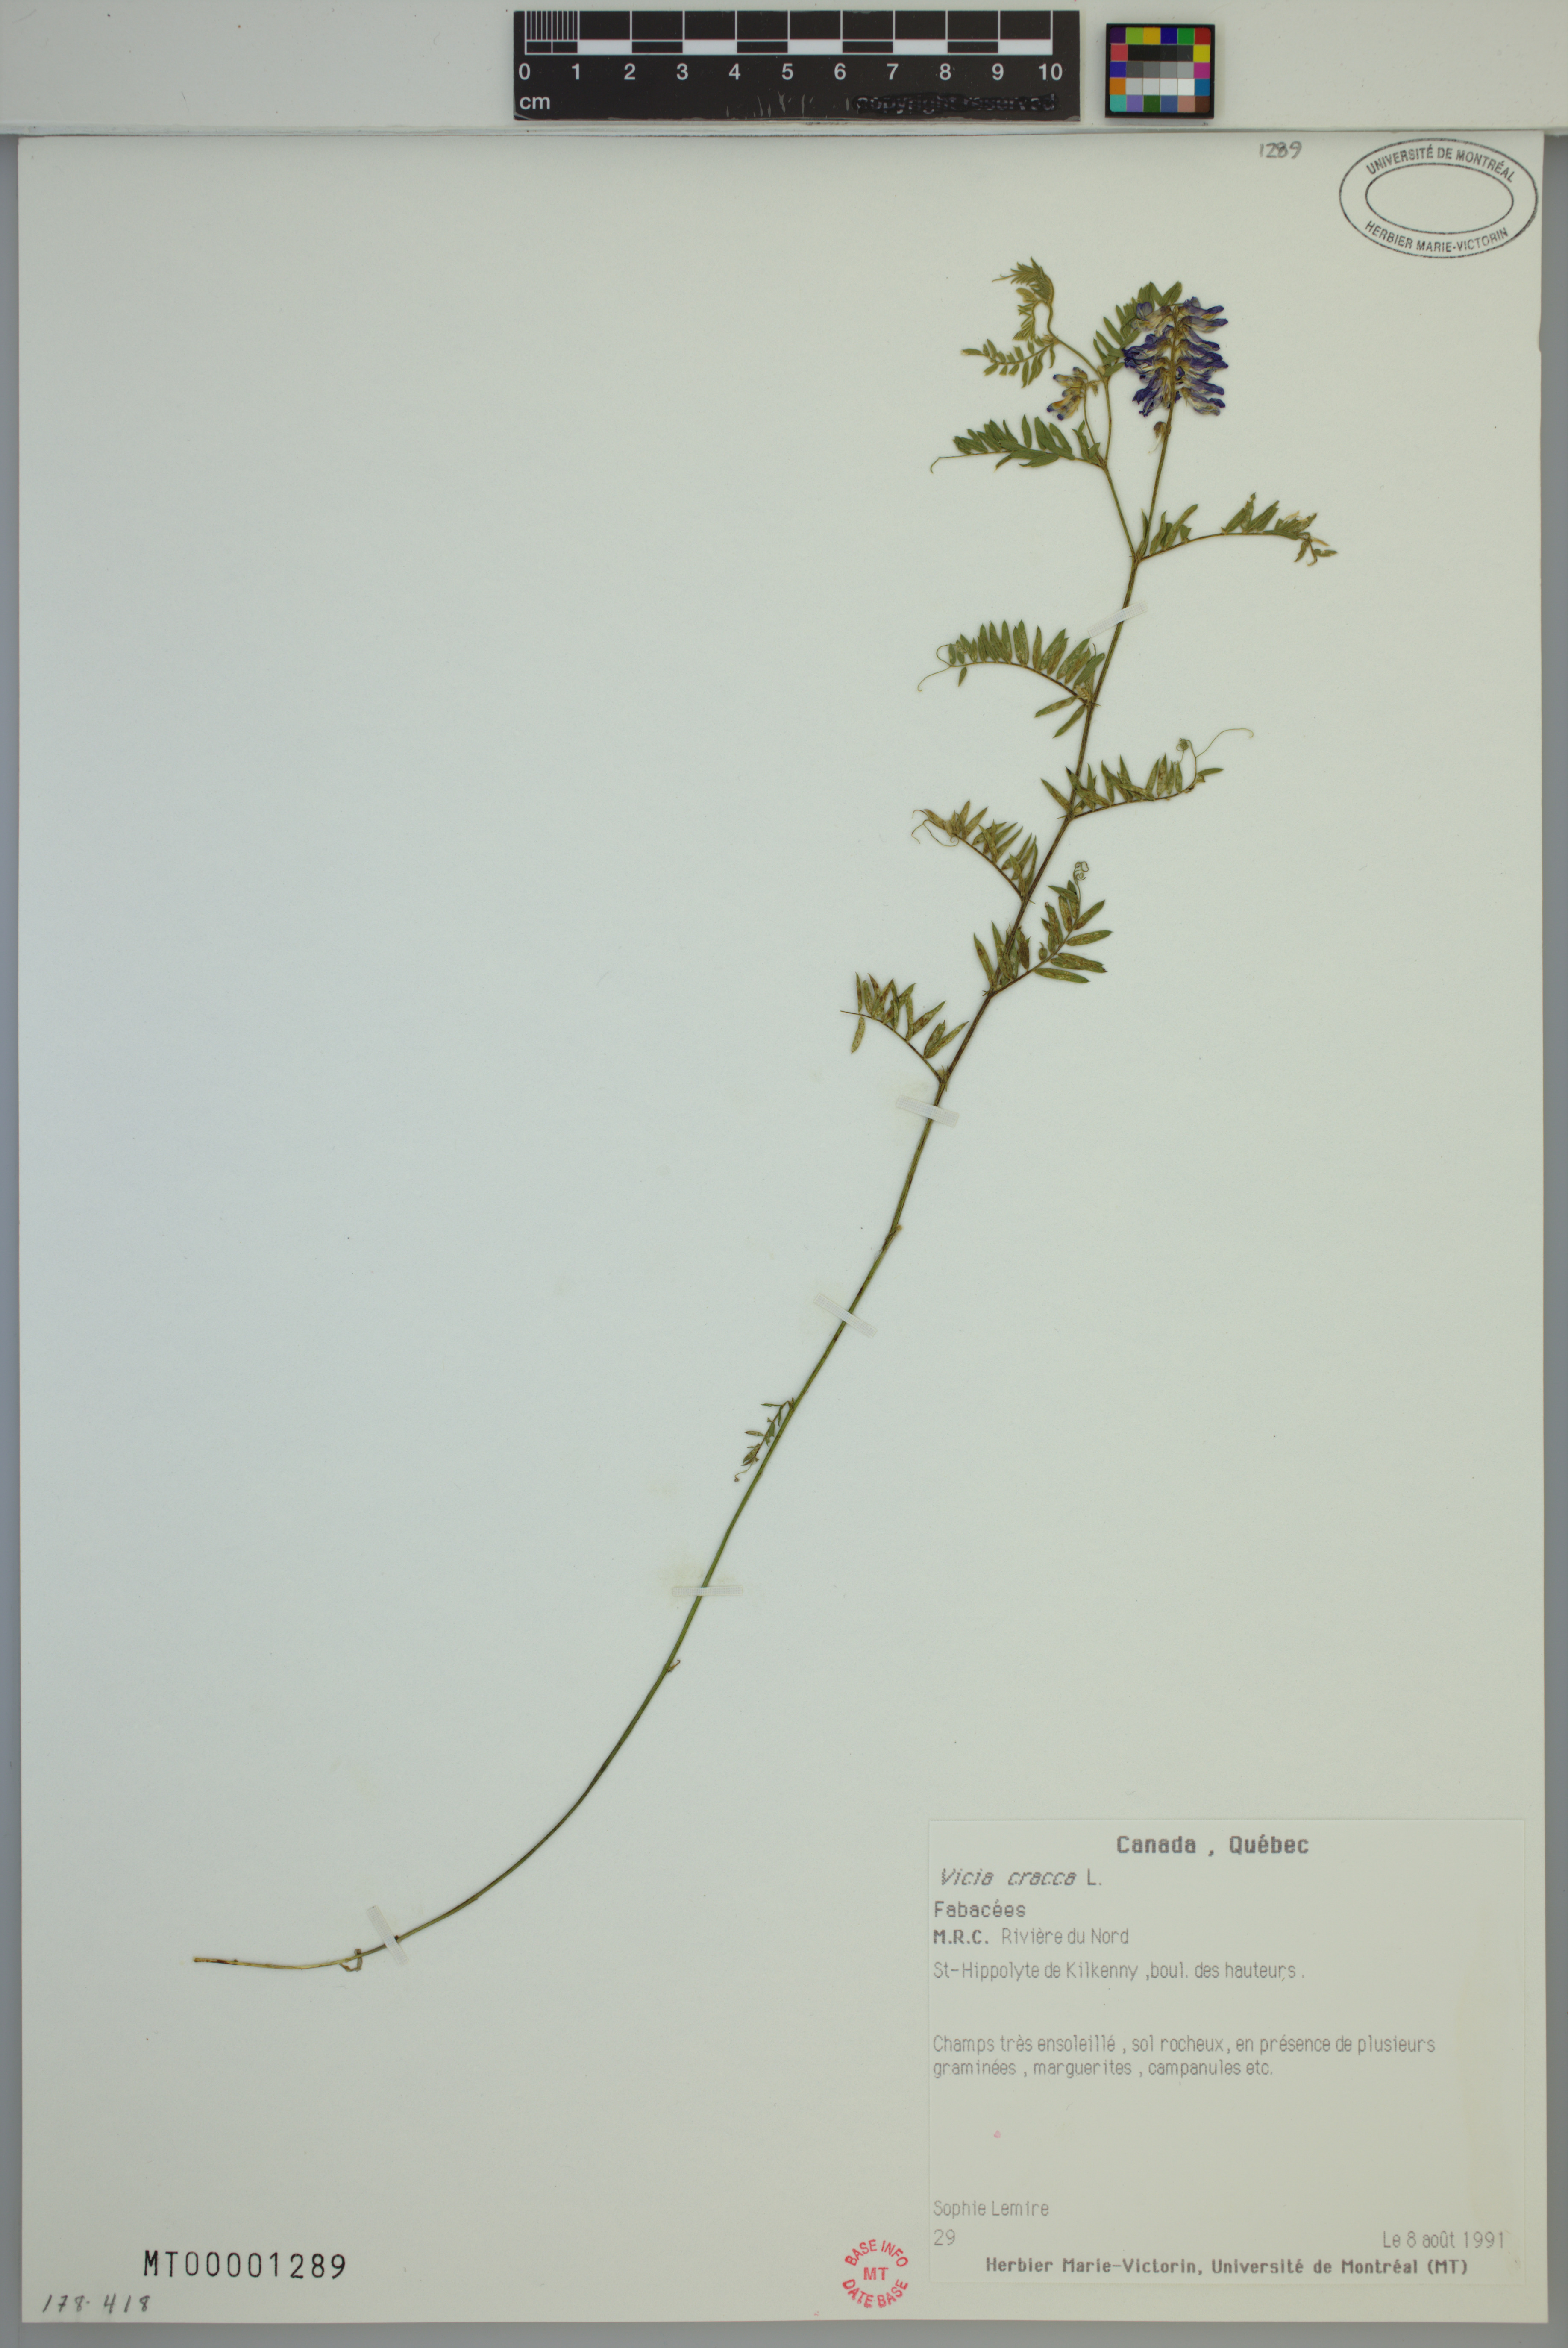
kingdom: Plantae
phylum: Tracheophyta
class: Magnoliopsida
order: Fabales
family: Fabaceae
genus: Vicia
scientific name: Vicia cracca
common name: Bird vetch
